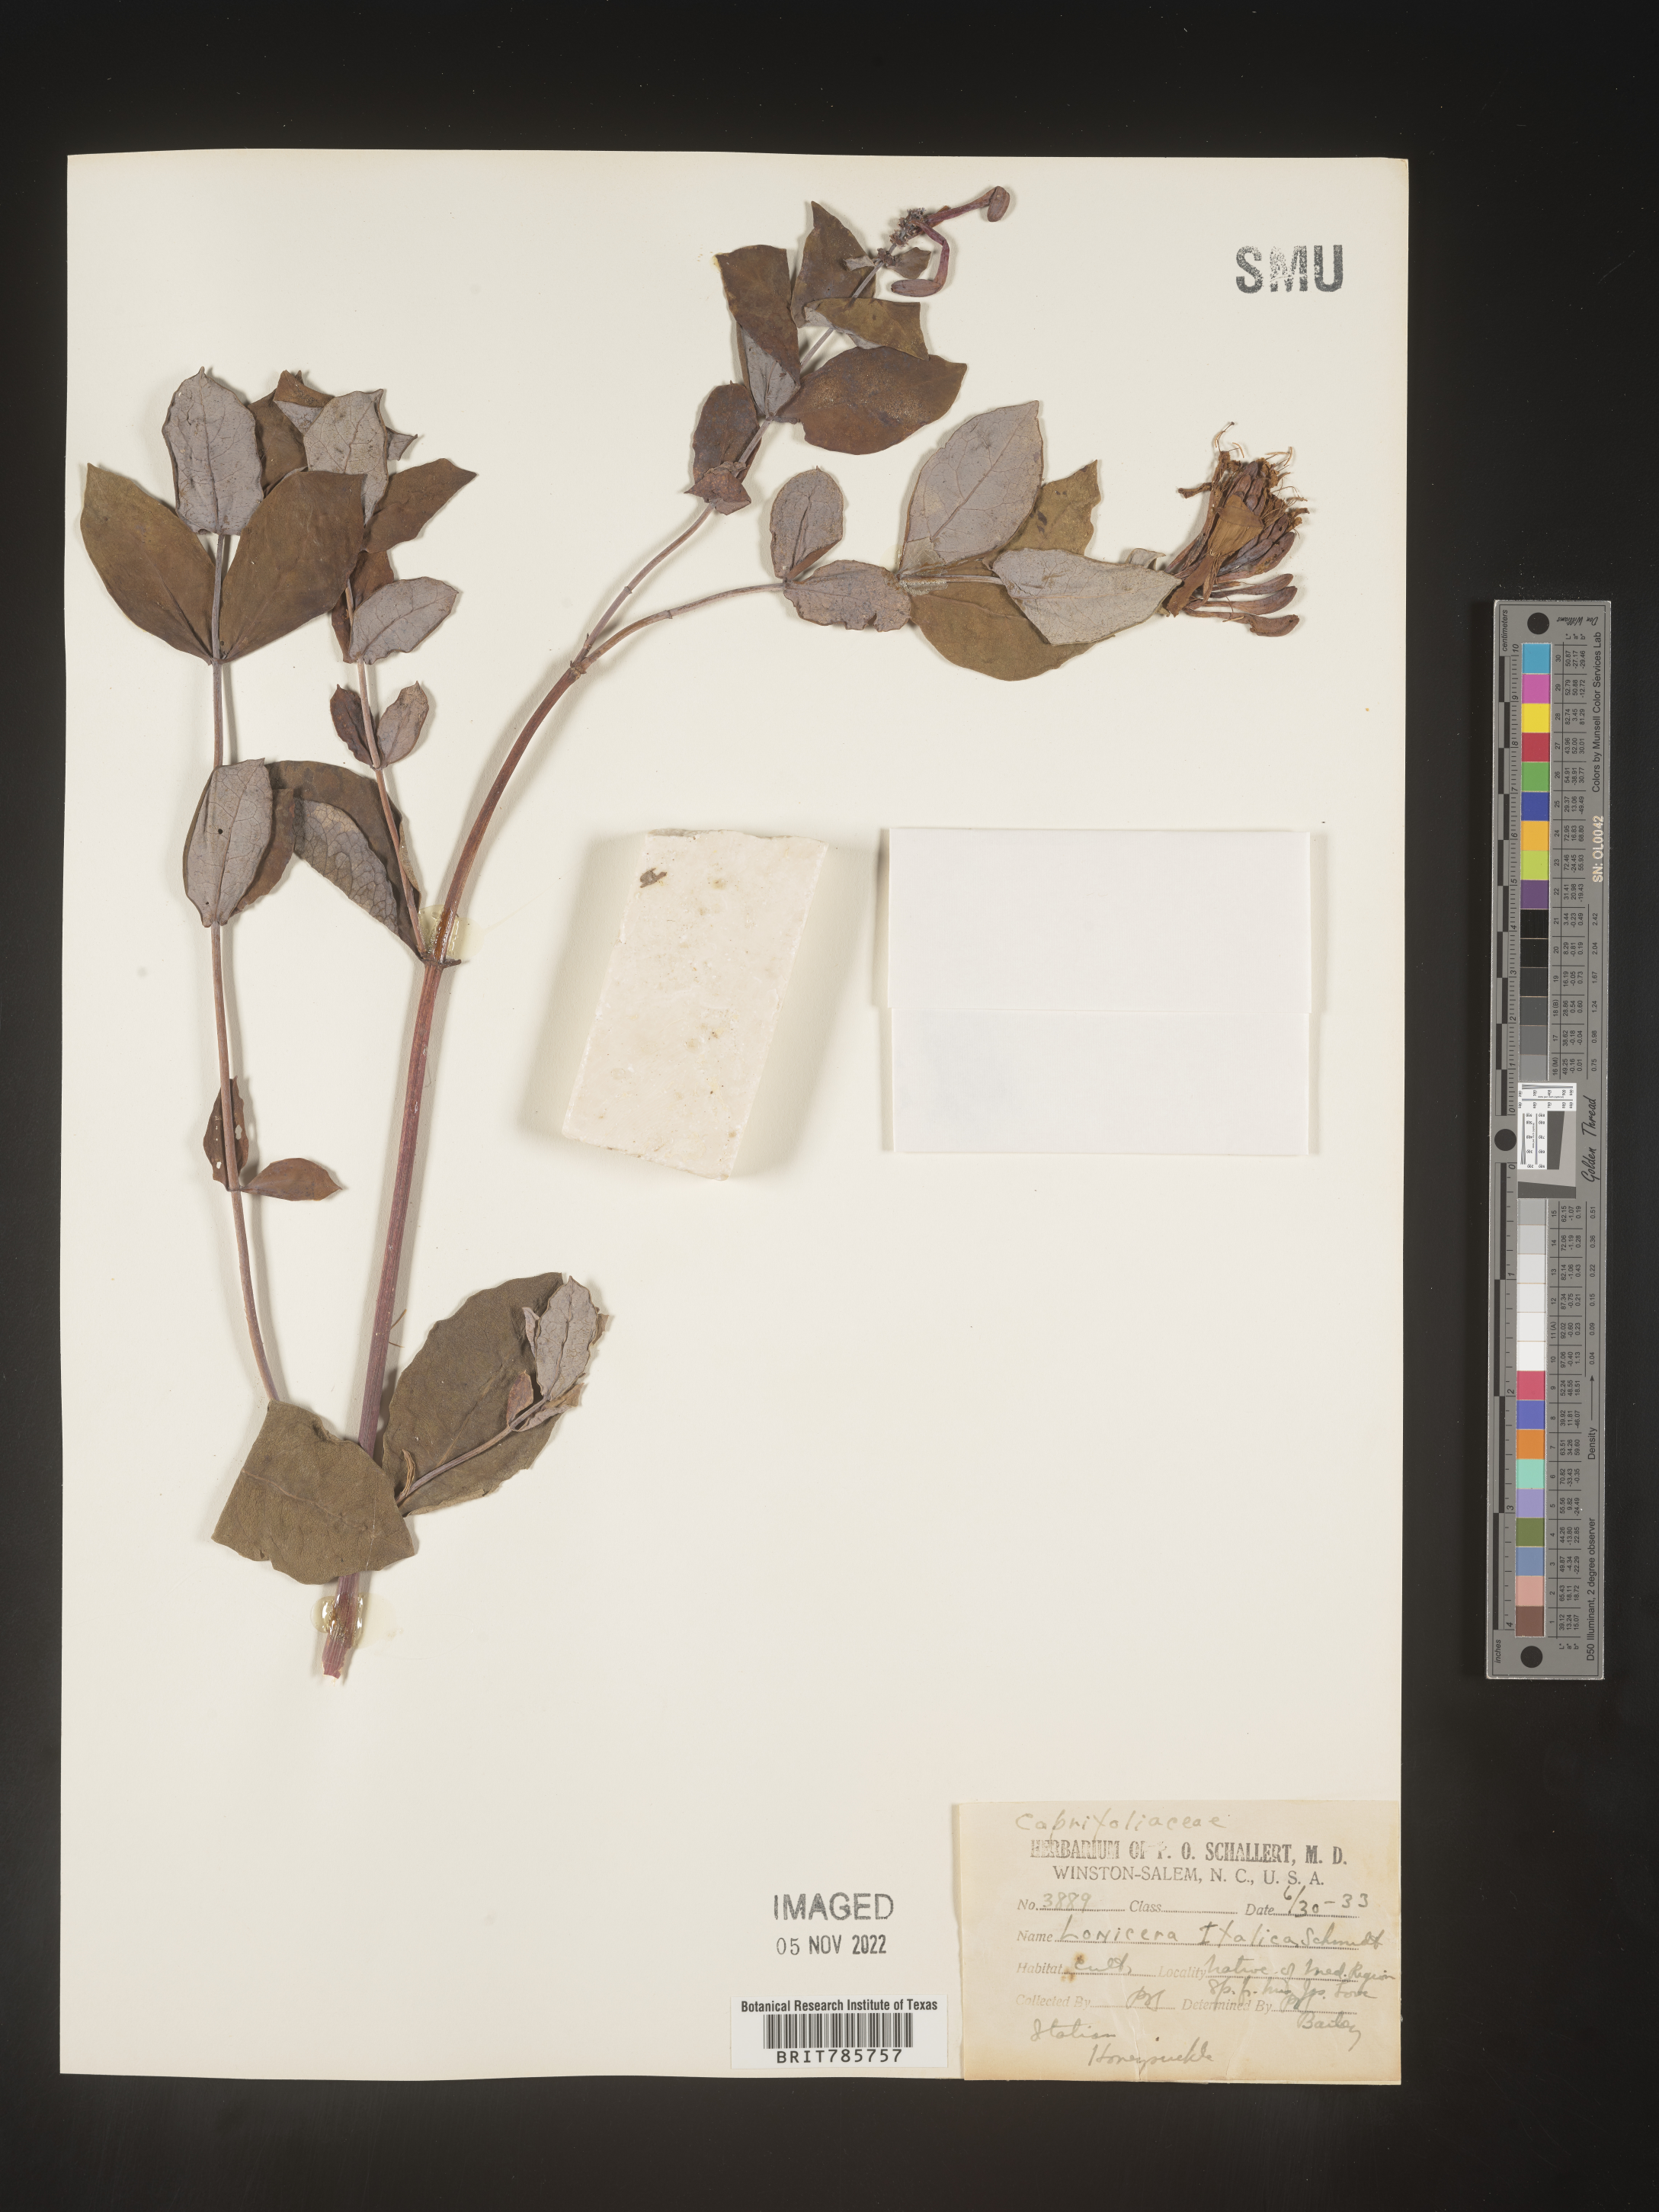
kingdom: Plantae
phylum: Tracheophyta
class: Magnoliopsida
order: Dipsacales
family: Caprifoliaceae
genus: Lonicera
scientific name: Lonicera
